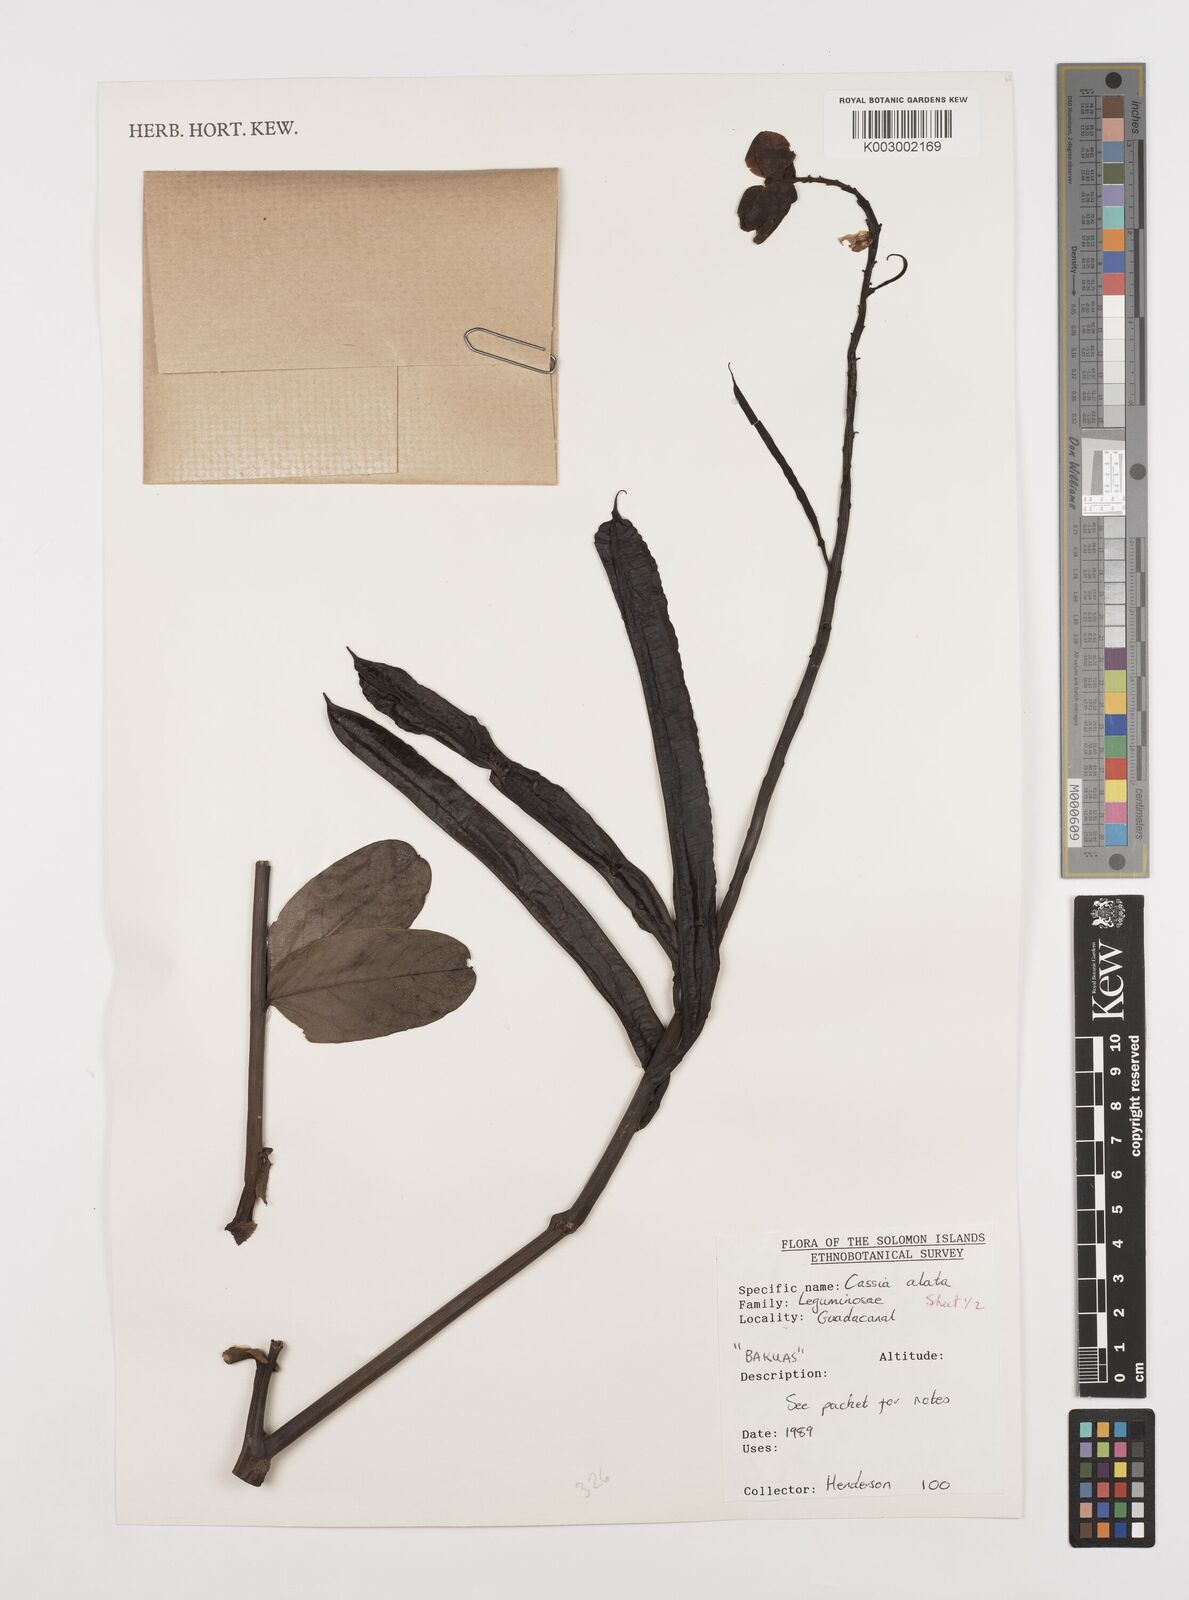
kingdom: Plantae
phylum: Tracheophyta
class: Magnoliopsida
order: Fabales
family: Fabaceae
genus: Senna
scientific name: Senna alata
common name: Emperor's candlesticks
